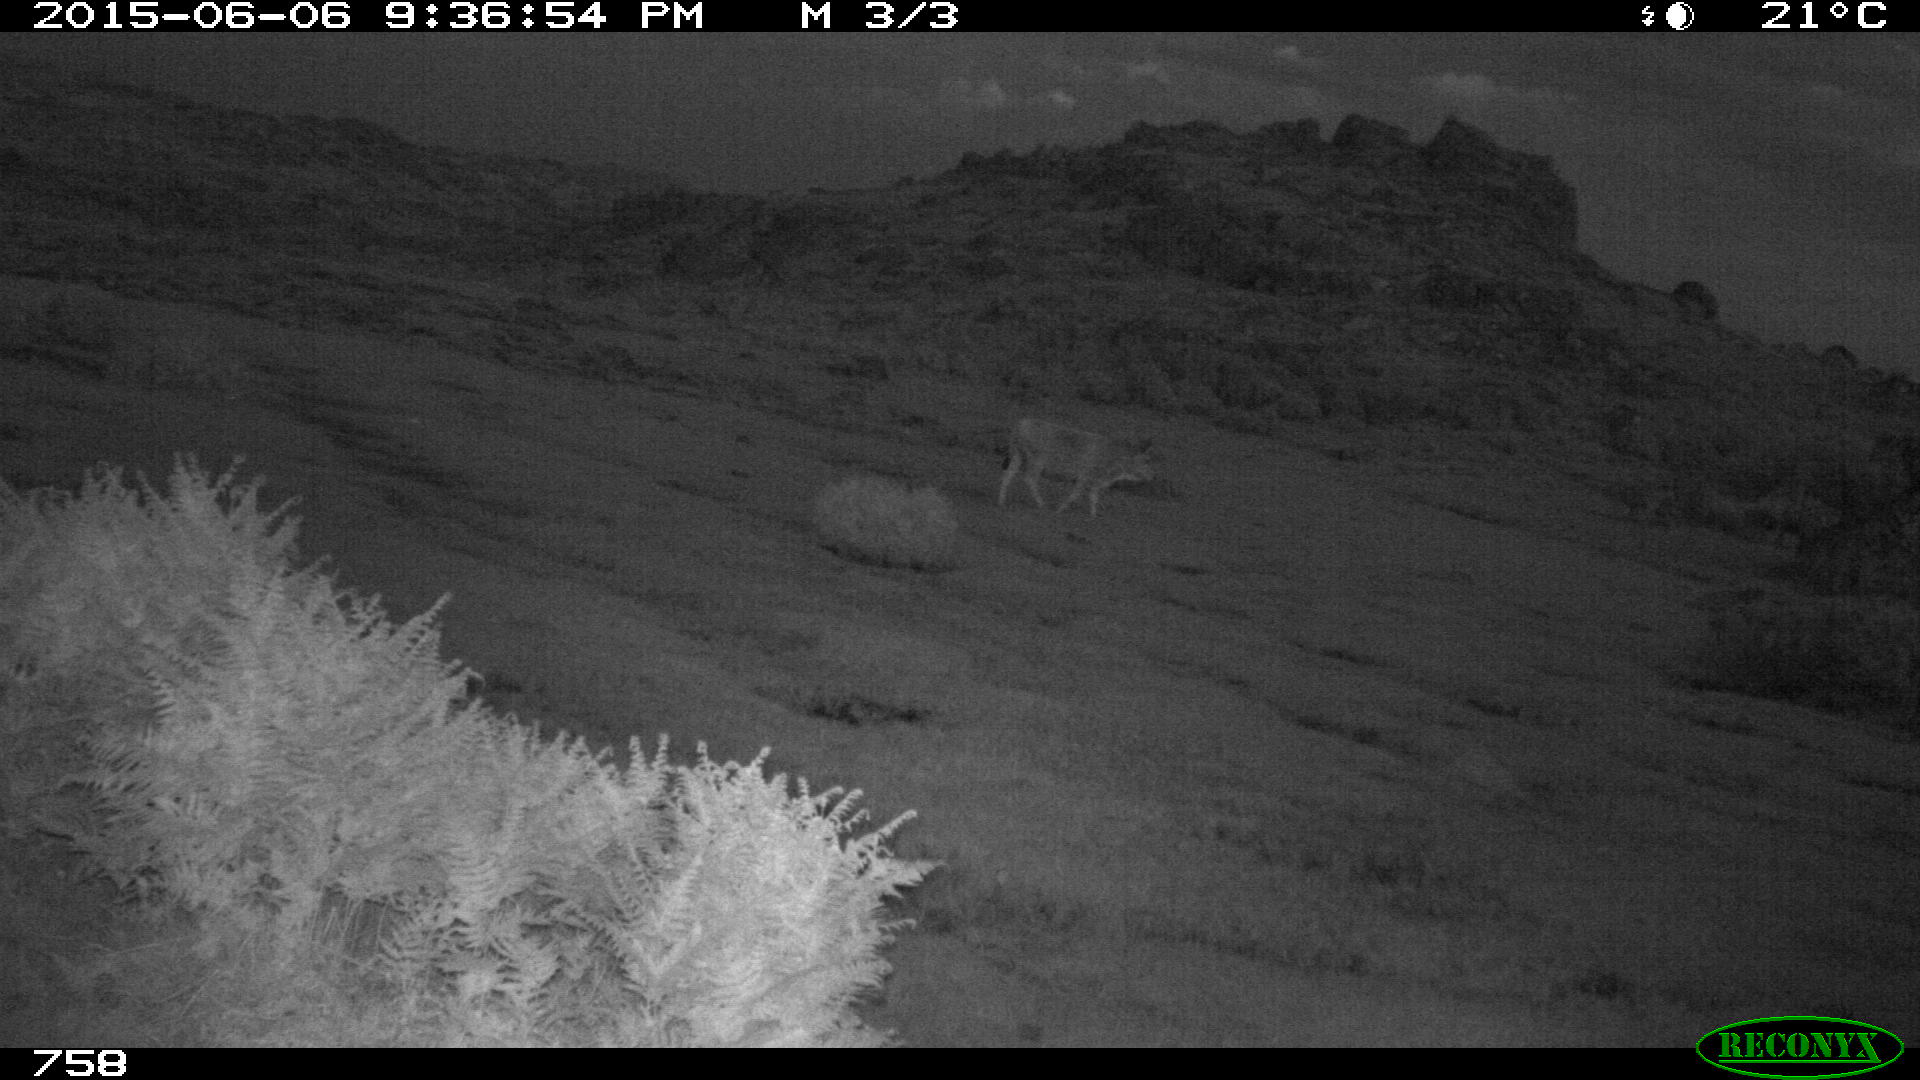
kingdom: Animalia
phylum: Chordata
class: Mammalia
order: Artiodactyla
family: Bovidae
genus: Bos
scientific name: Bos taurus
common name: Domesticated cattle
